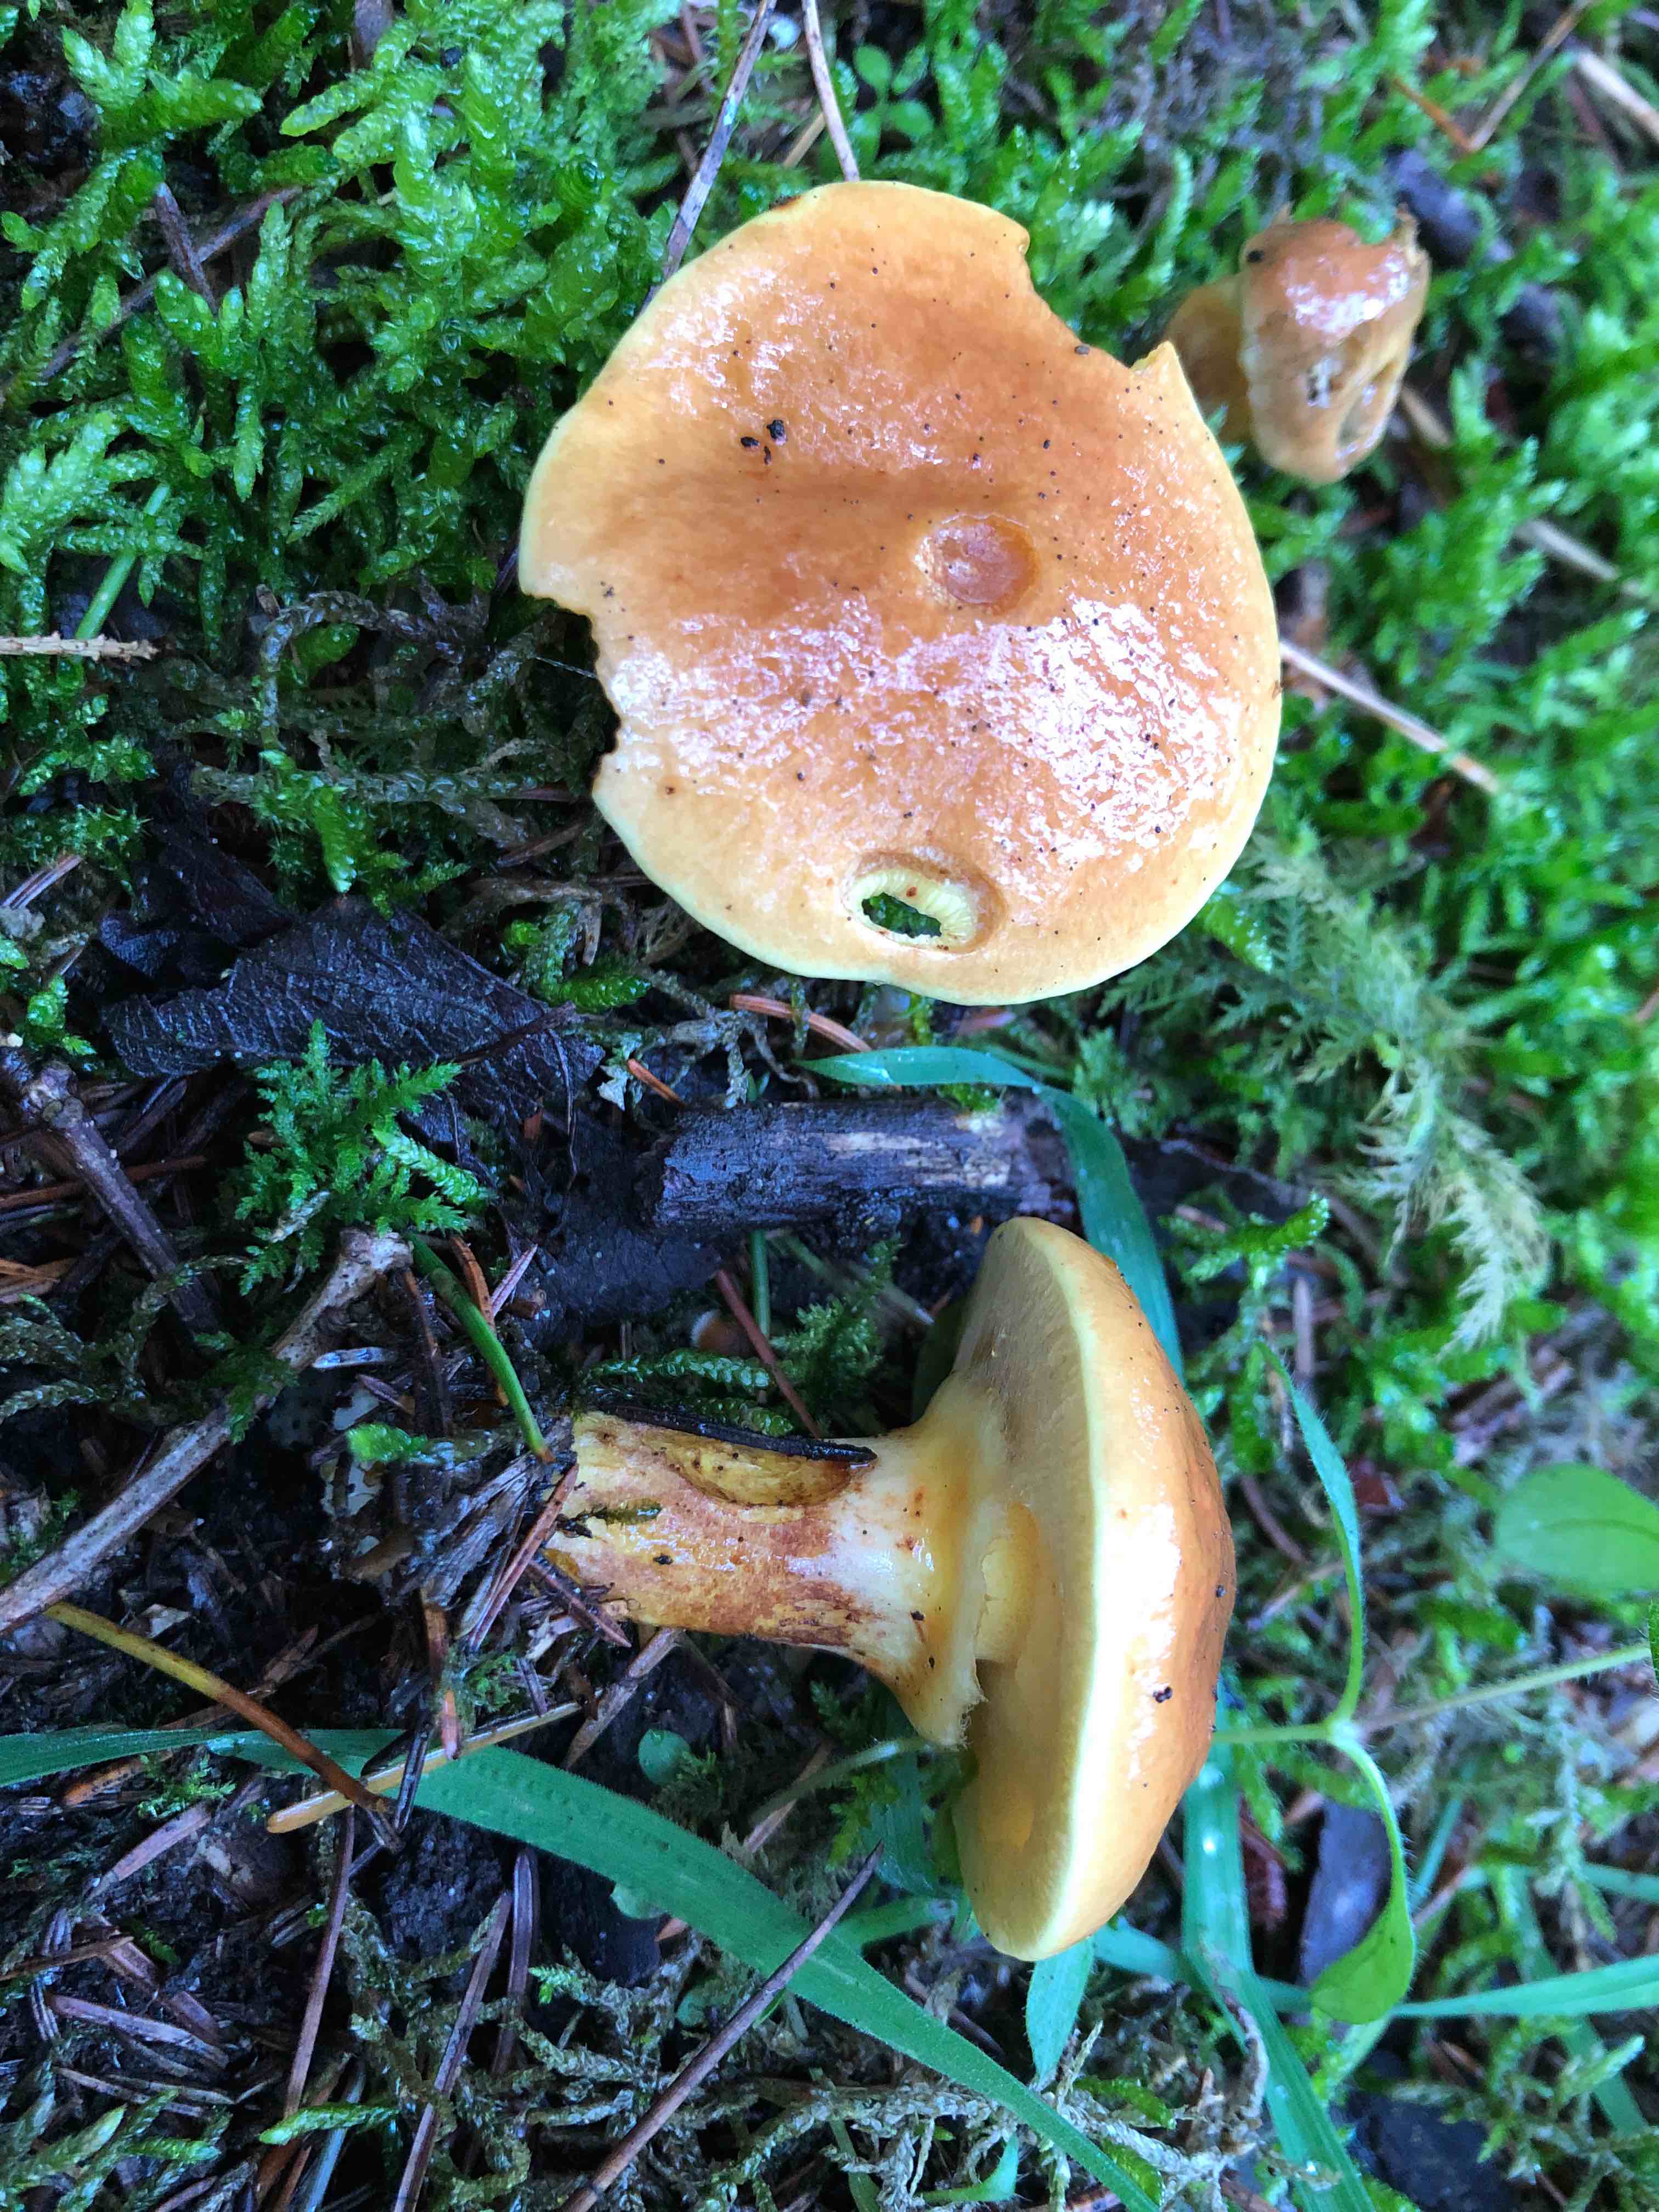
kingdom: Fungi
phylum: Basidiomycota
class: Agaricomycetes
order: Boletales
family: Suillaceae
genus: Suillus
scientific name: Suillus grevillei
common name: lærke-slimrørhat
